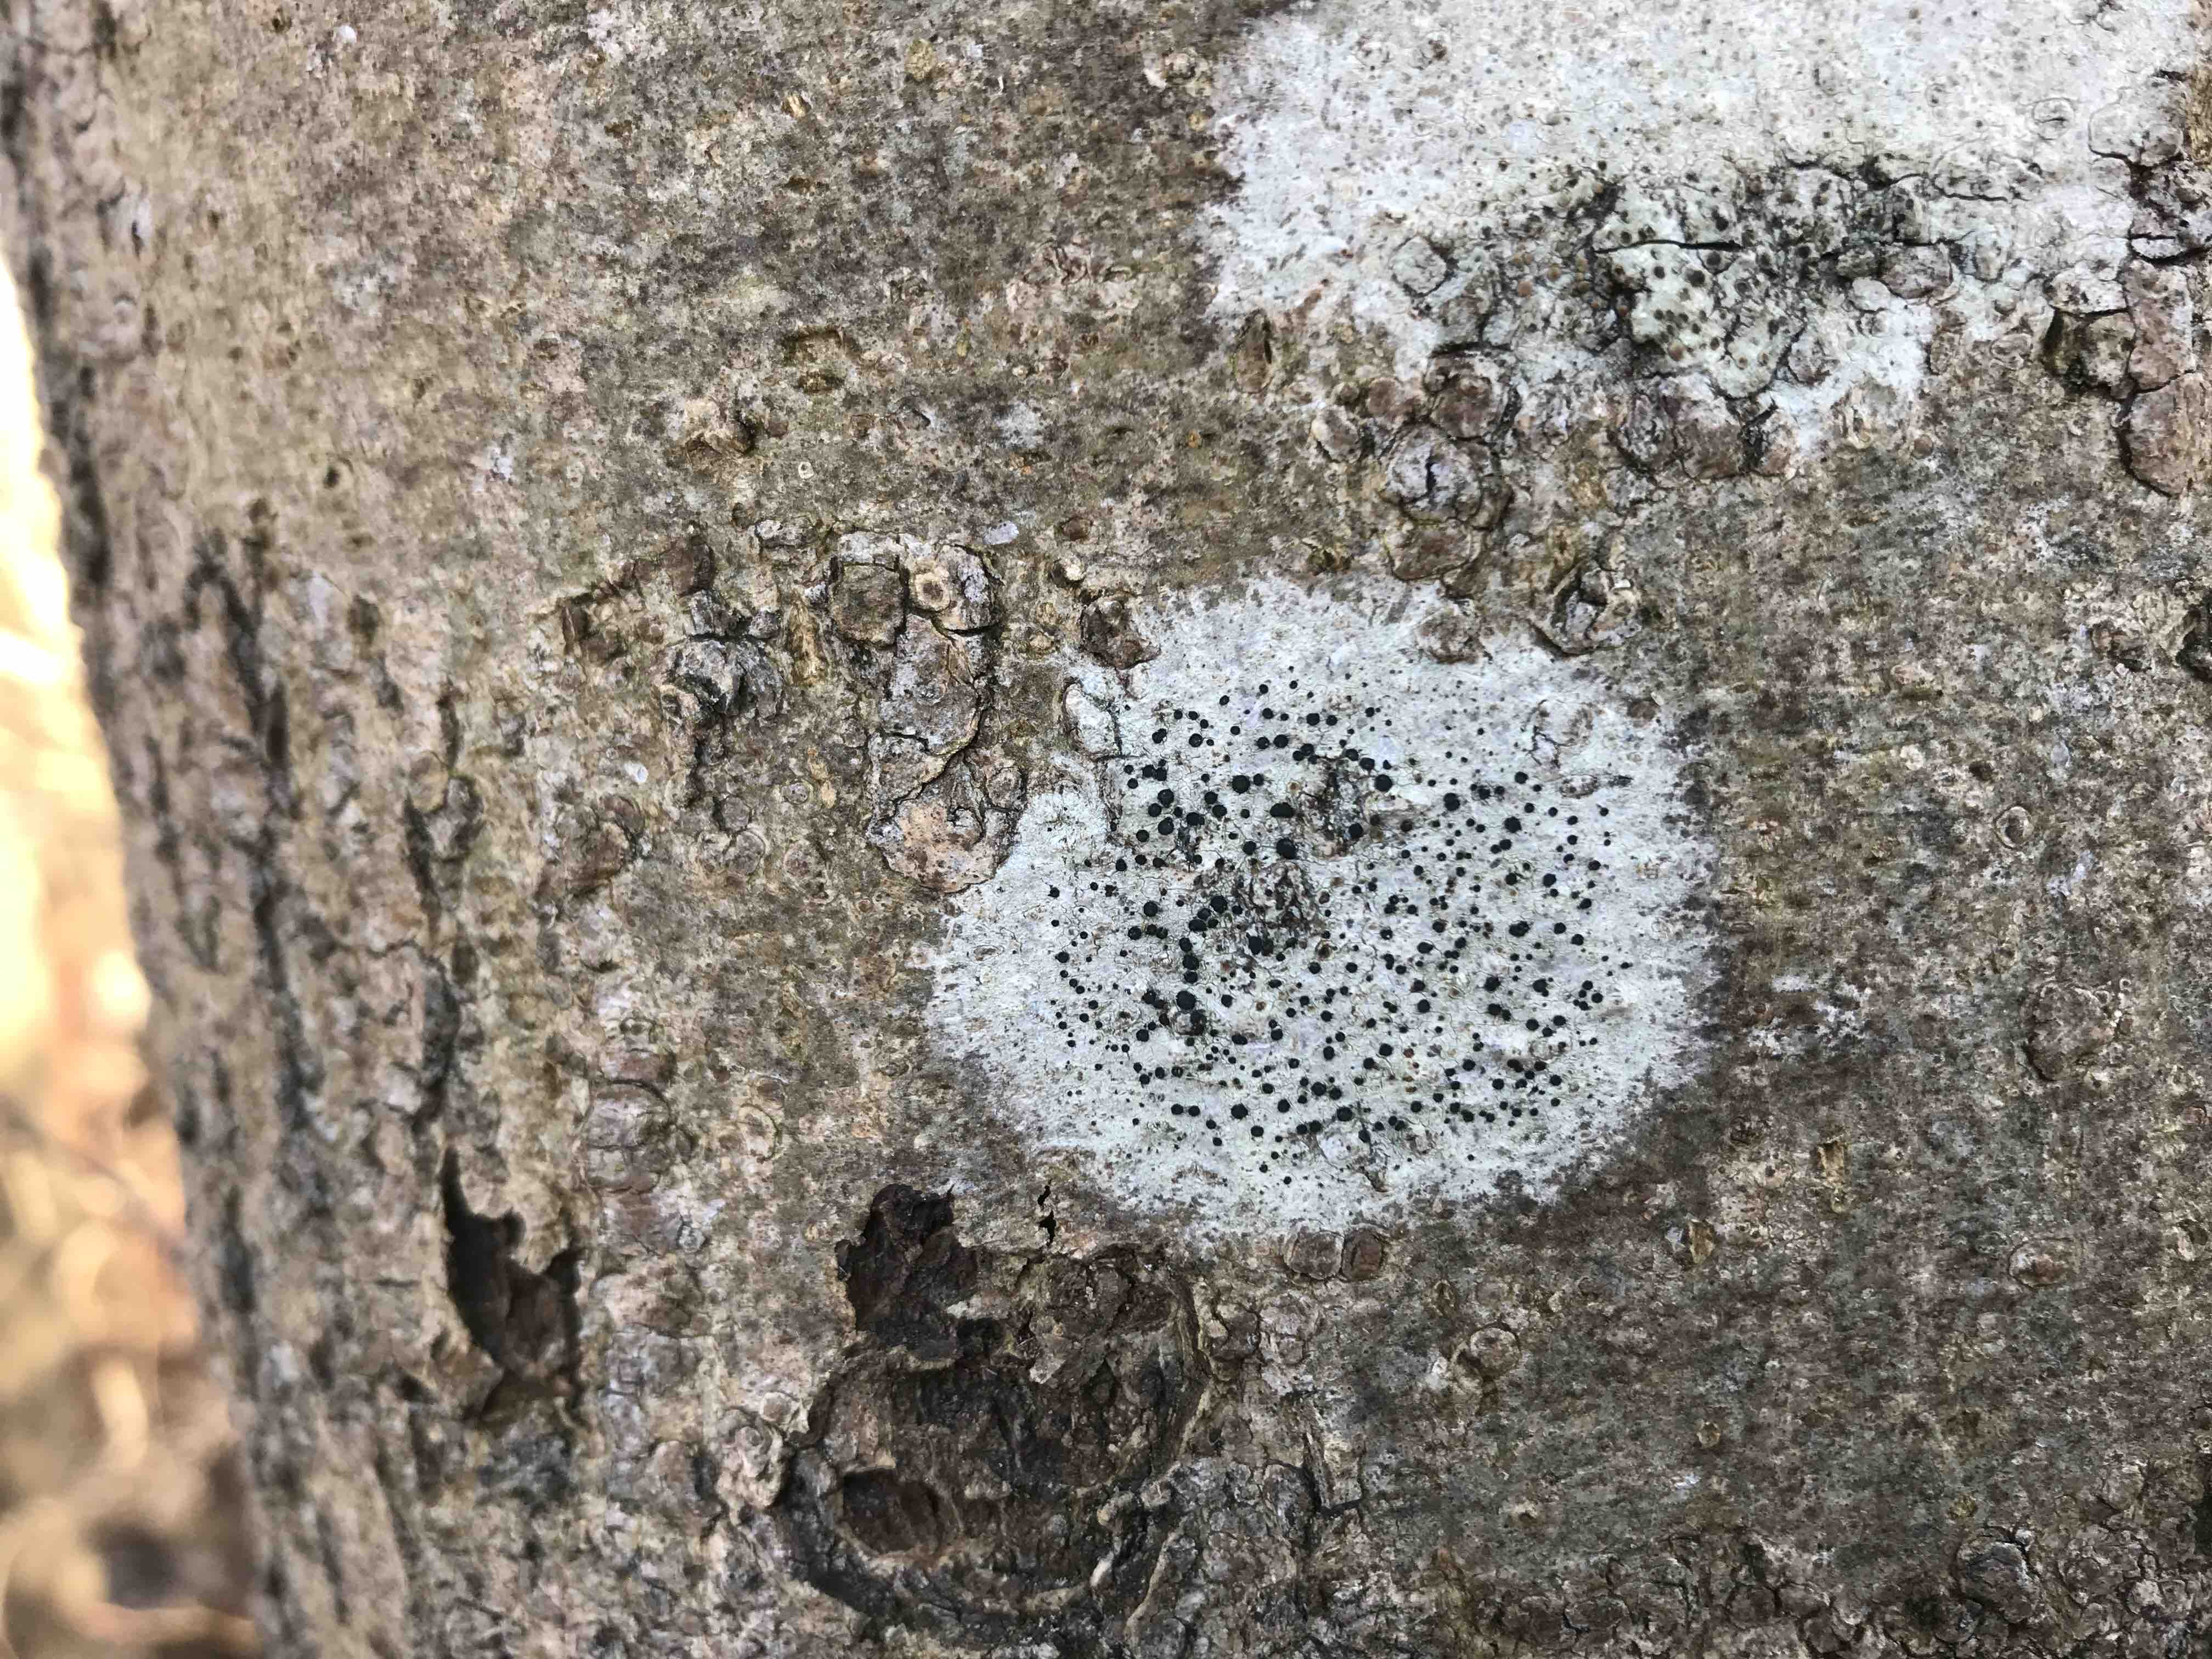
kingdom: Fungi
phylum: Ascomycota
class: Lecanoromycetes
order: Lecanorales
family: Lecanoraceae
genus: Lecidella
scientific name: Lecidella elaeochroma
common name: grågrøn skivelav
